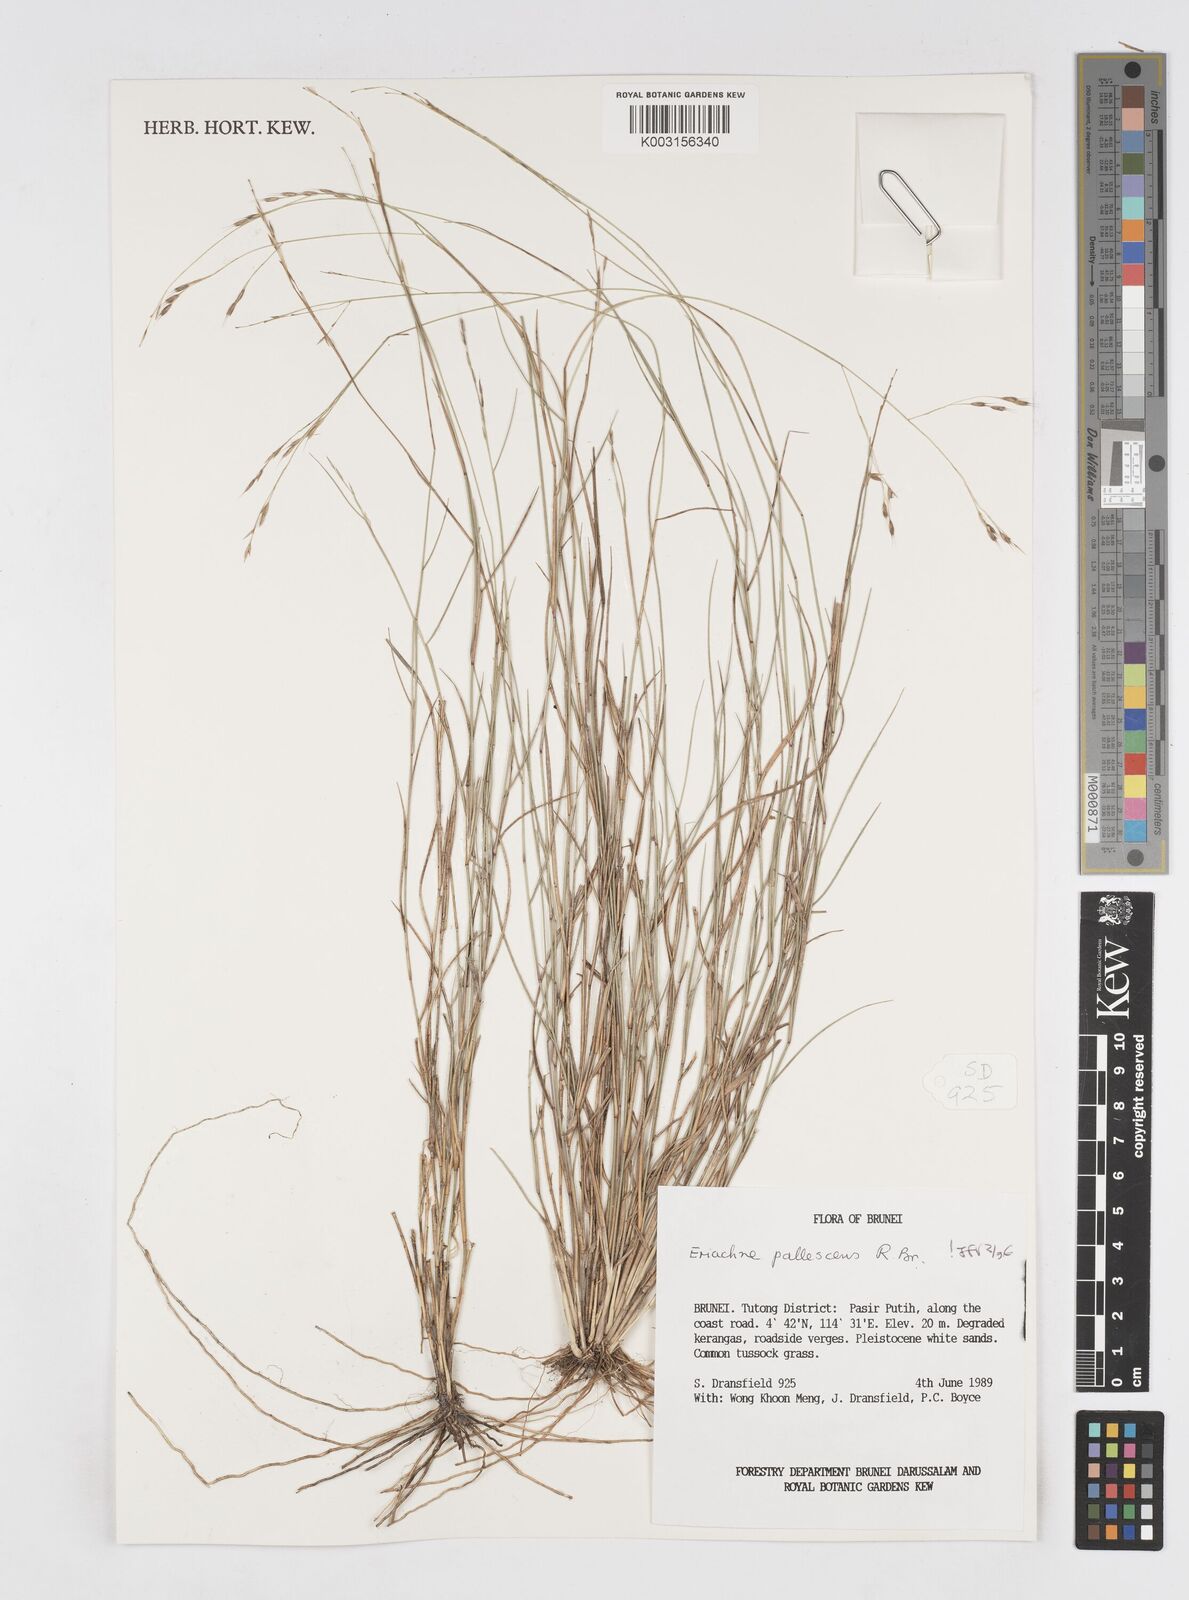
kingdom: Plantae
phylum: Tracheophyta
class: Liliopsida
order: Poales
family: Poaceae
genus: Eriachne
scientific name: Eriachne pallescens
